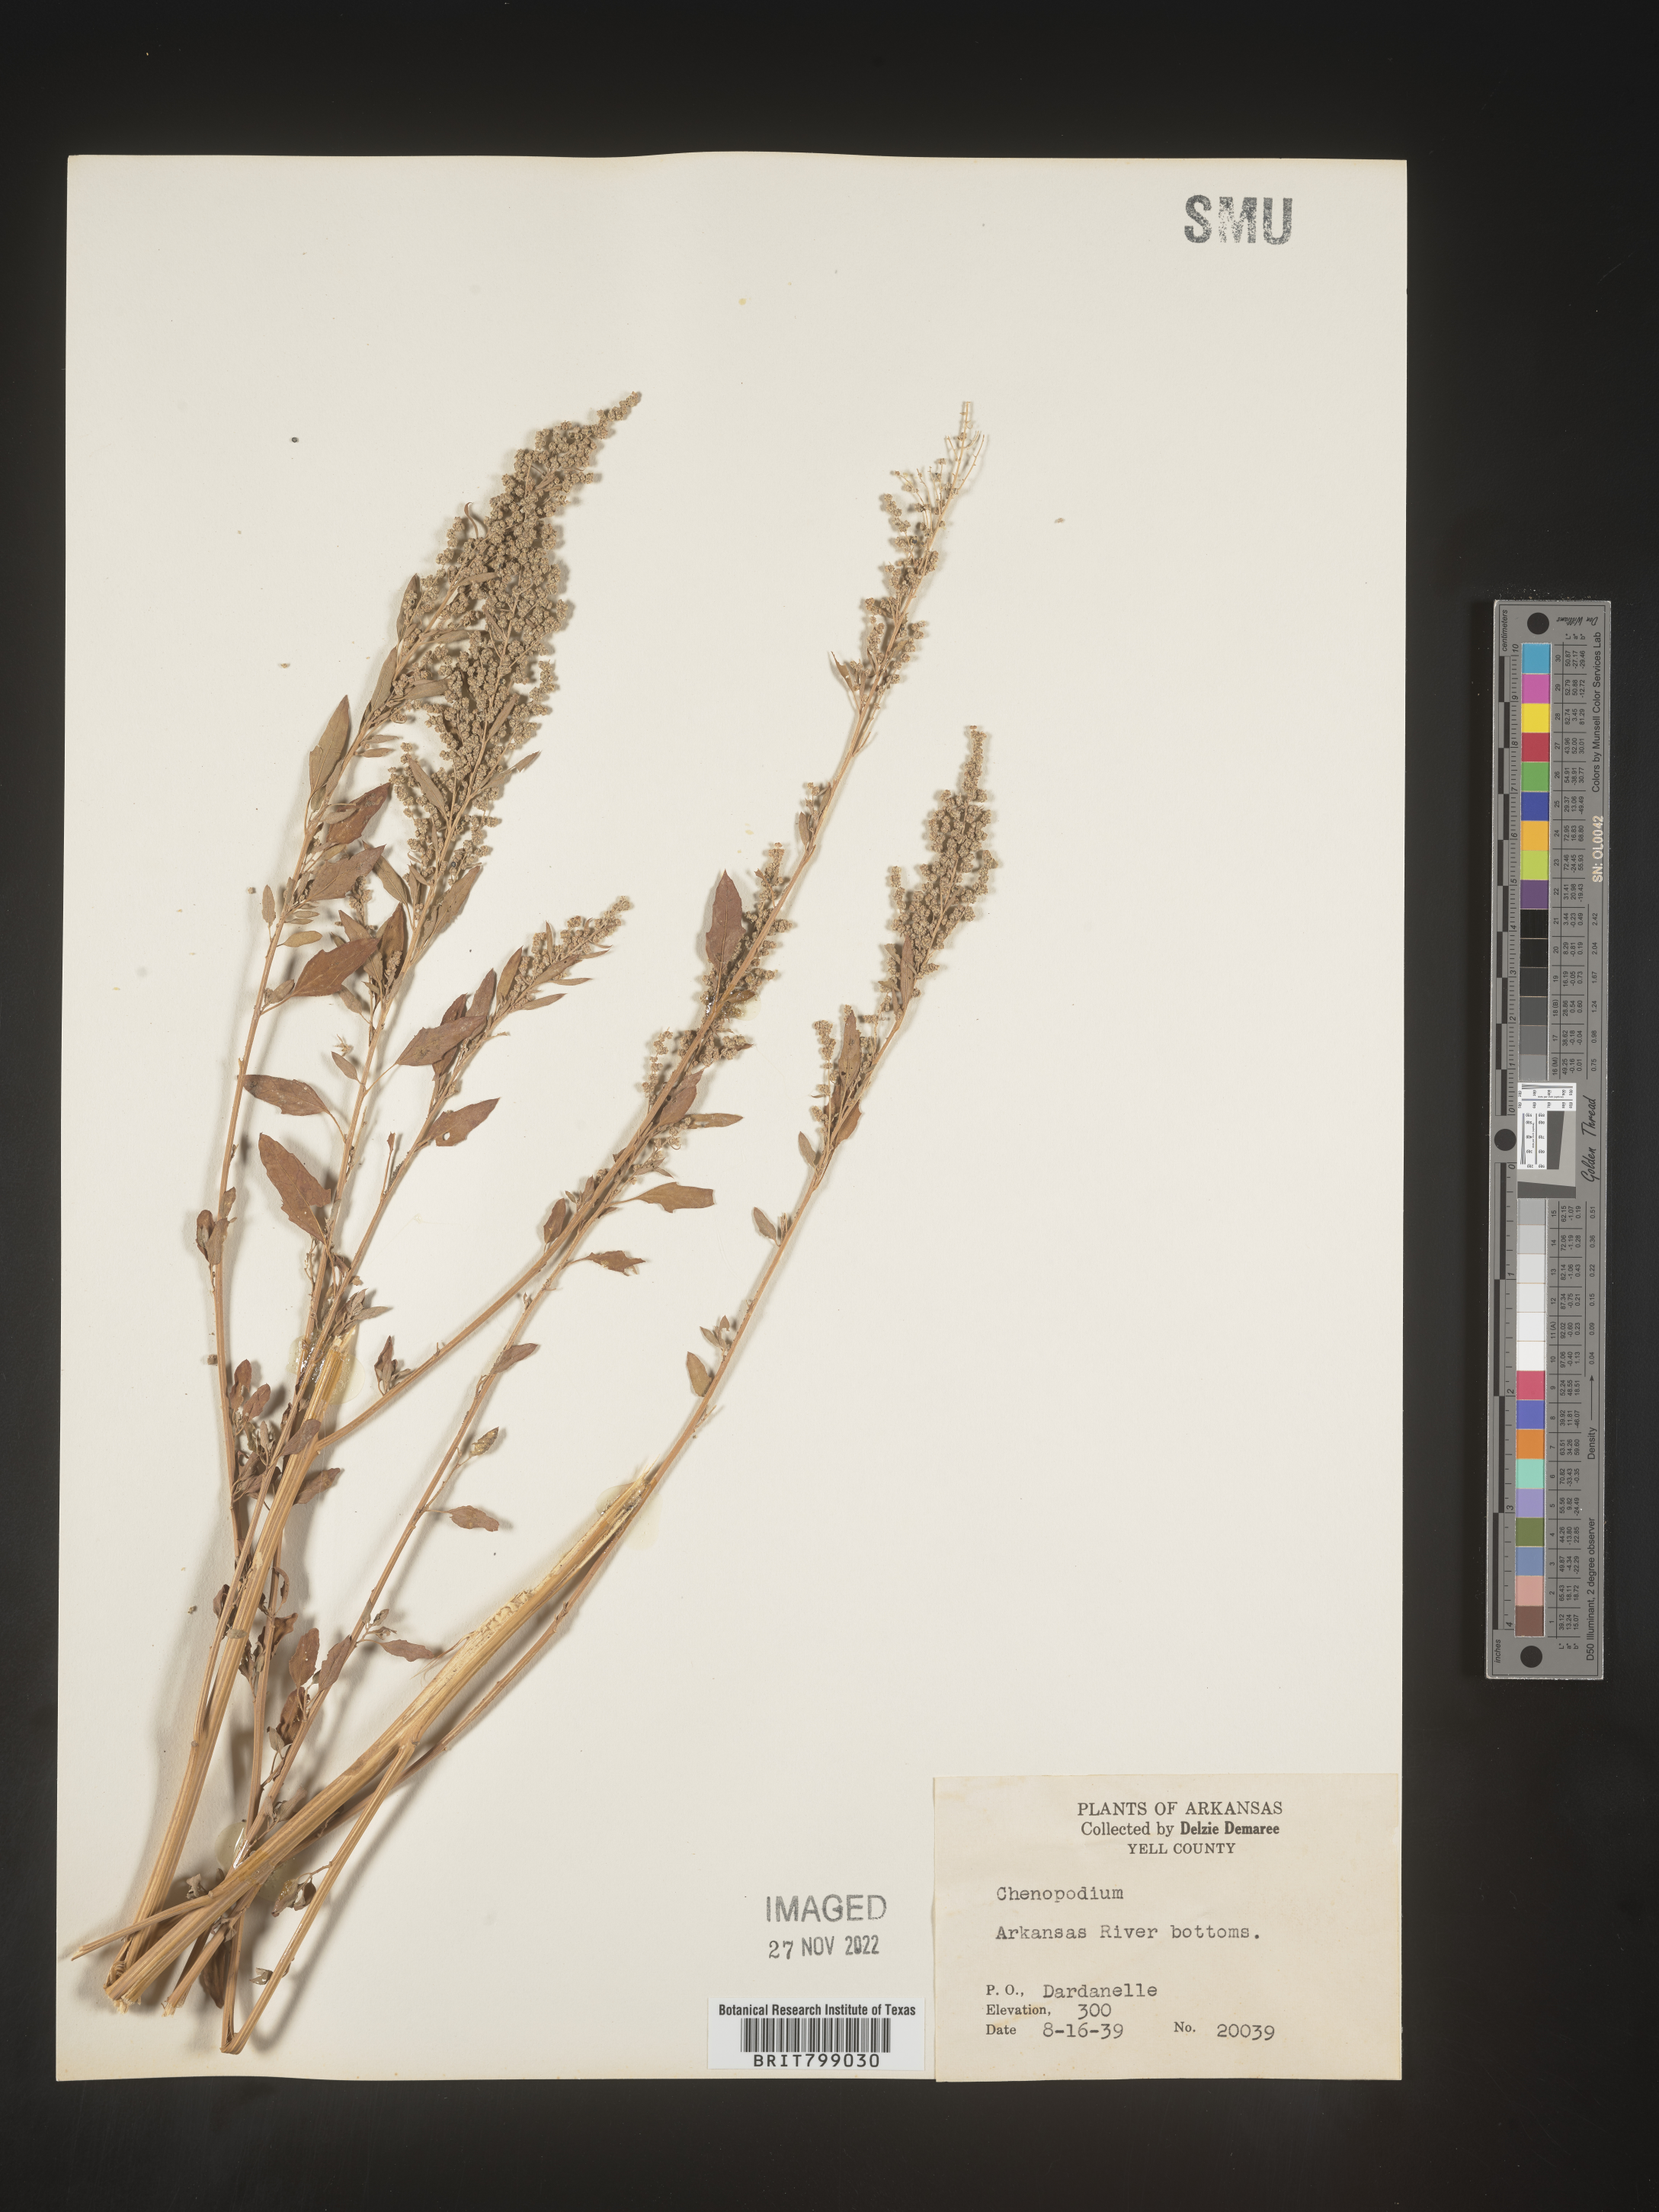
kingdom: Plantae
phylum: Tracheophyta
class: Magnoliopsida
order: Caryophyllales
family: Amaranthaceae
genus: Chenopodium
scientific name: Chenopodium
